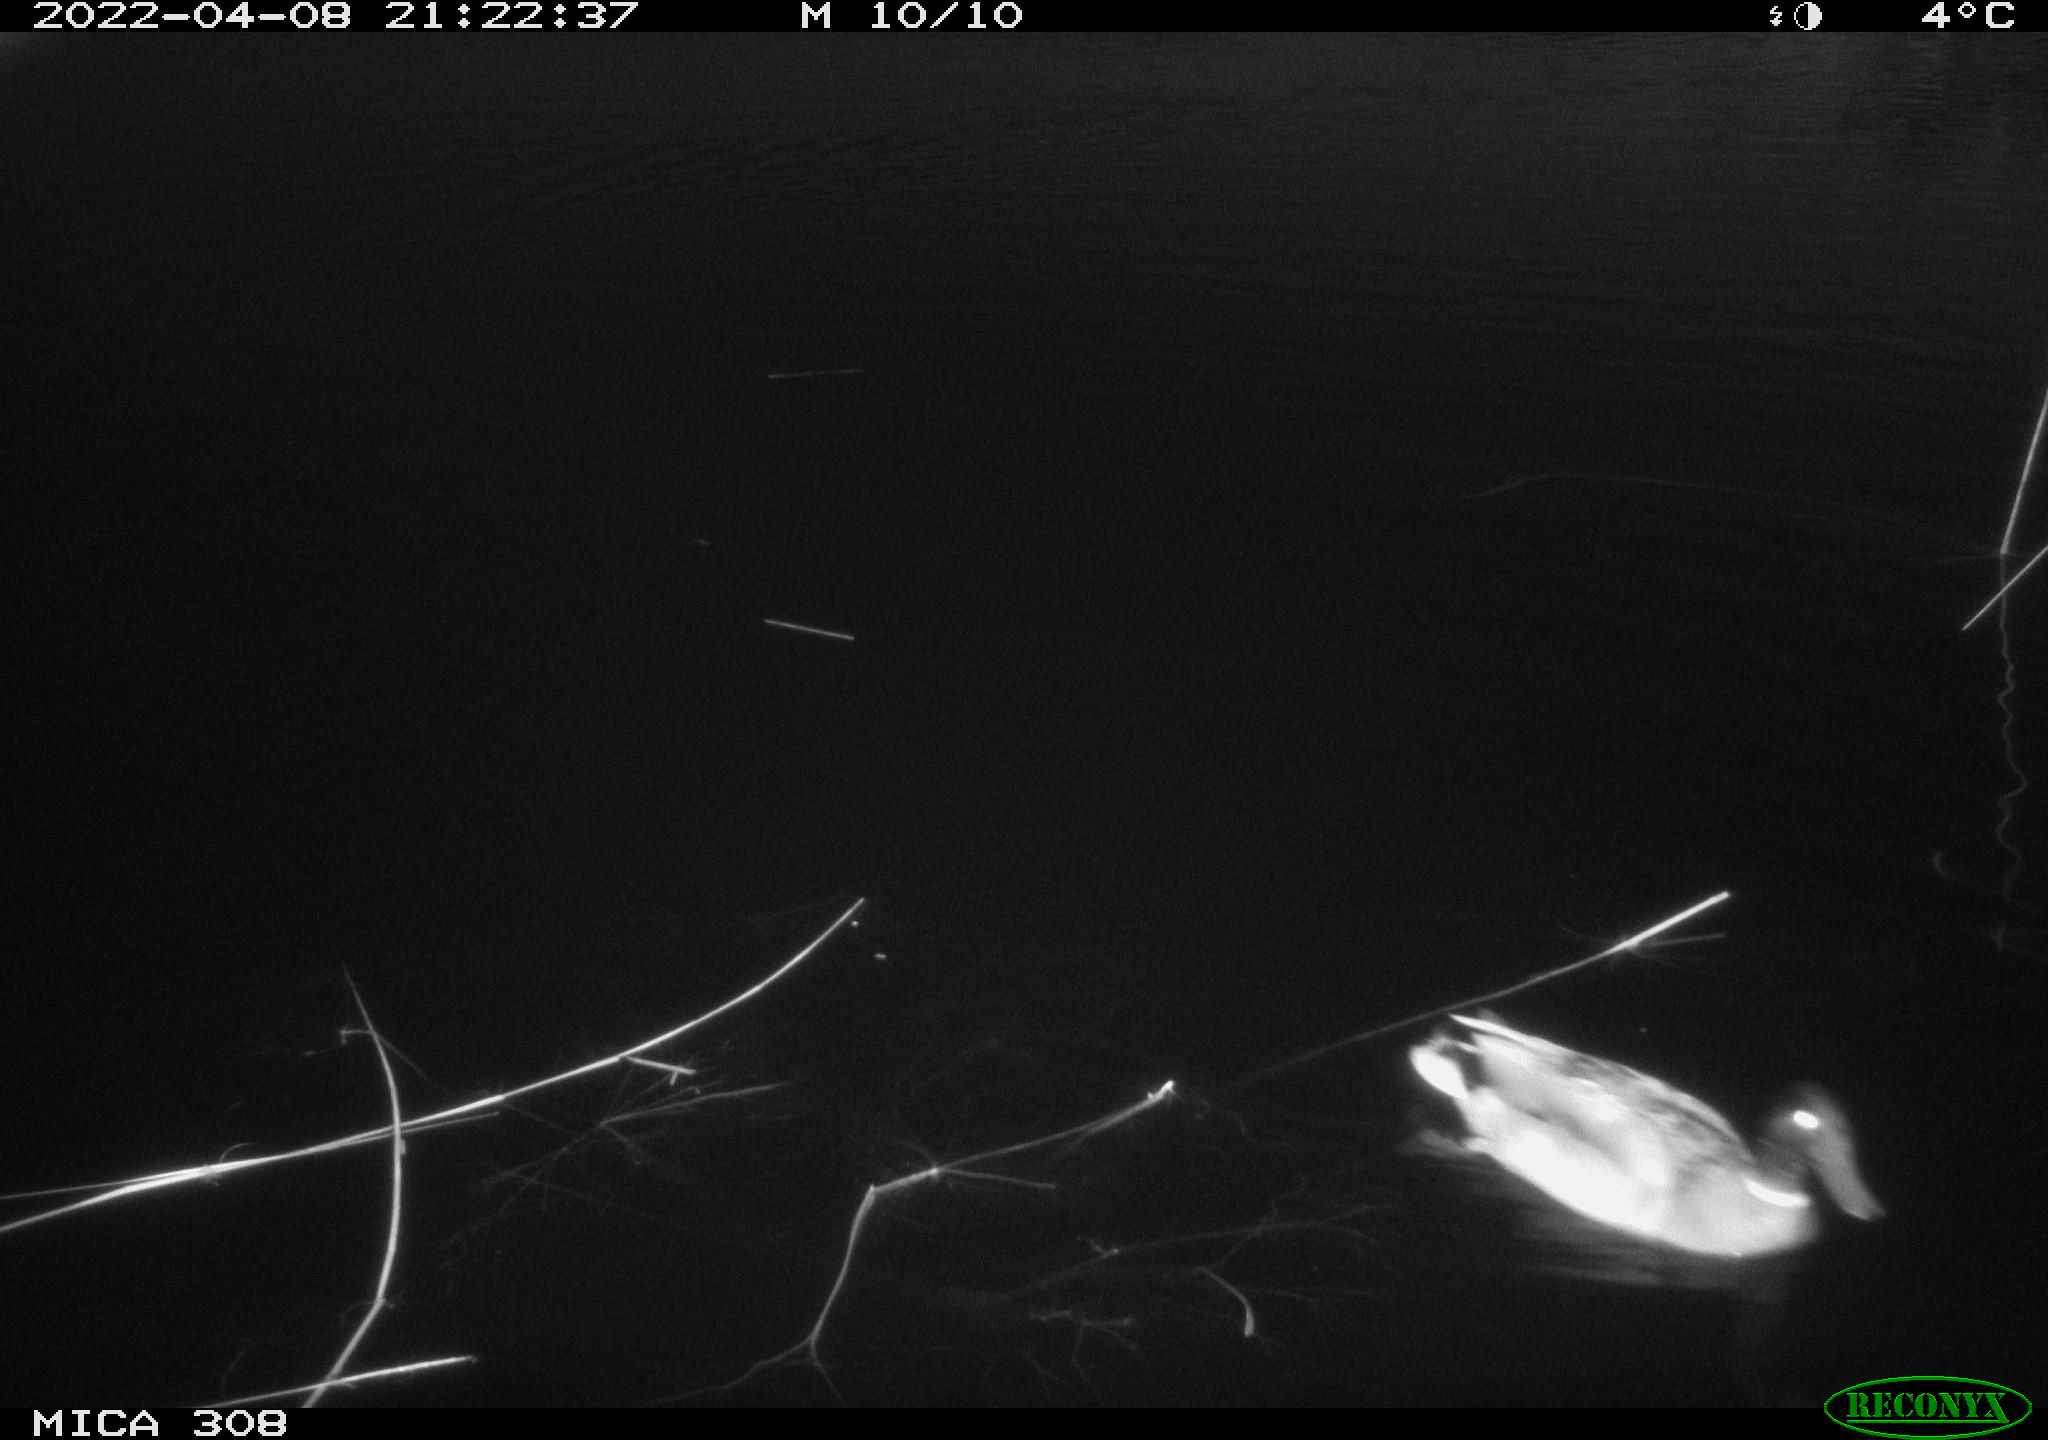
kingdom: Animalia
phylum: Chordata
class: Aves
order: Anseriformes
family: Anatidae
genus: Anas
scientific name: Anas platyrhynchos
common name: Mallard
